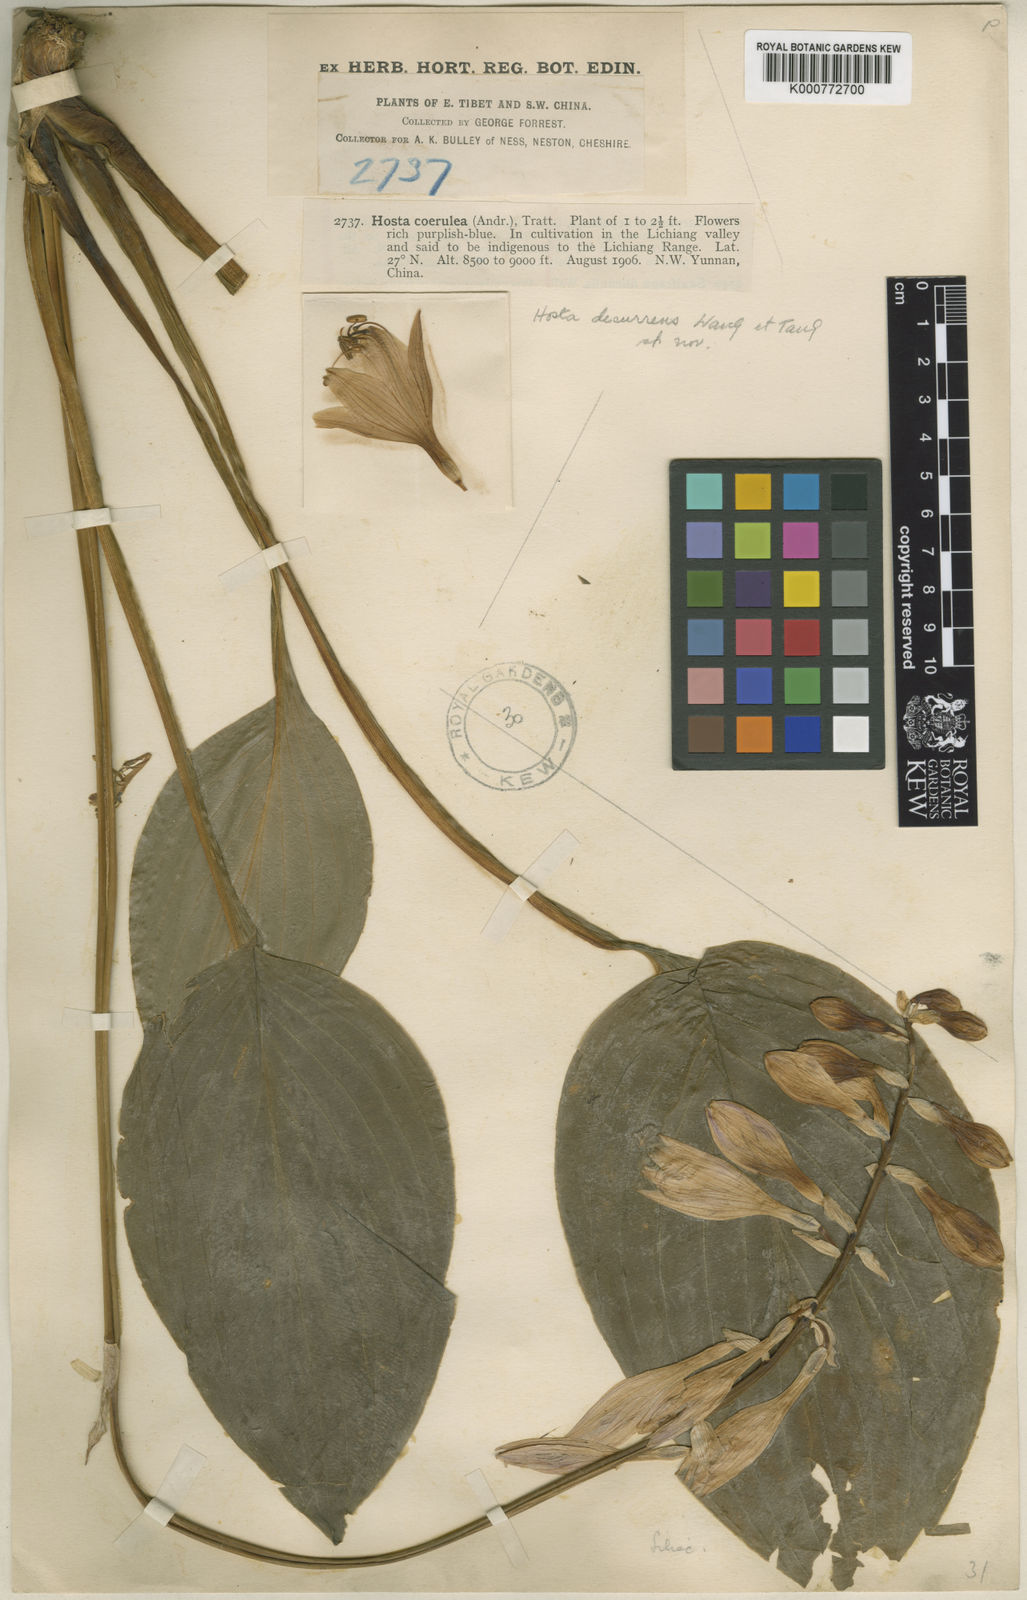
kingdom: Plantae
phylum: Tracheophyta
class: Liliopsida
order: Asparagales
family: Asparagaceae
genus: Hosta
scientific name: Hosta
